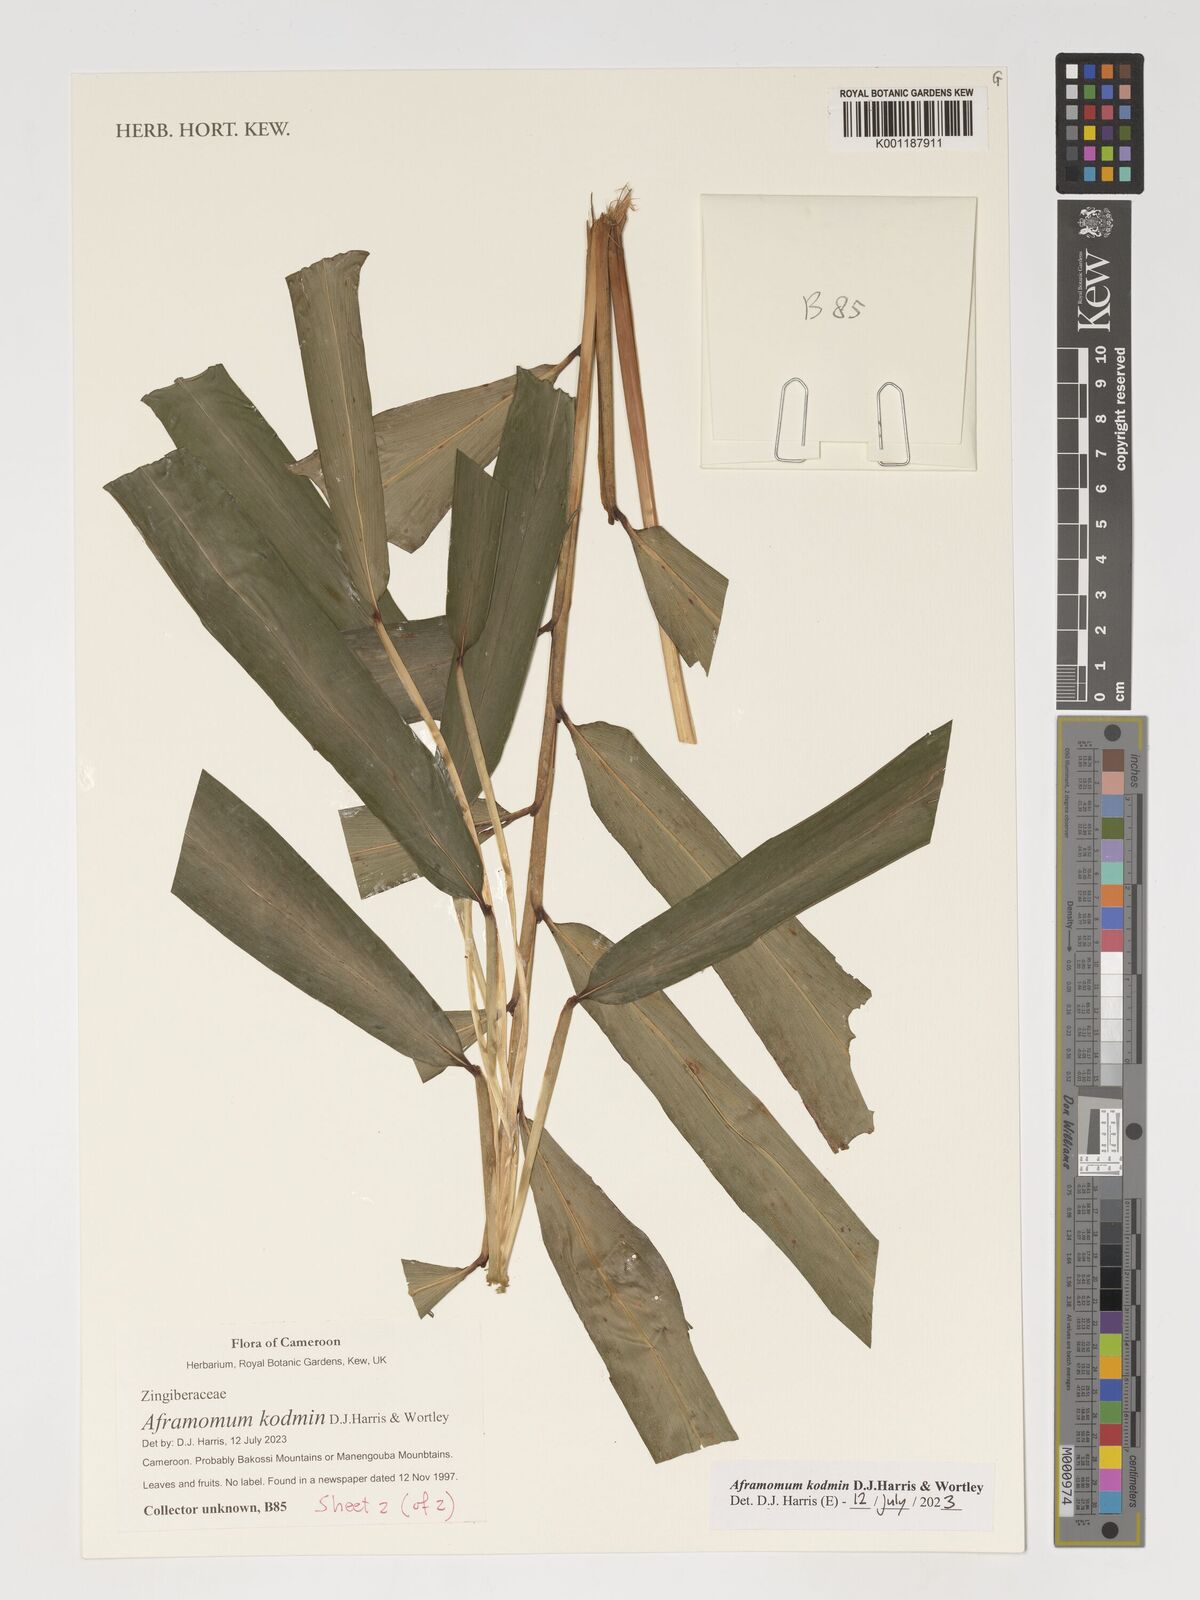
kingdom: Plantae
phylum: Tracheophyta
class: Liliopsida
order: Zingiberales
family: Zingiberaceae
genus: Aframomum
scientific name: Aframomum kodmin
